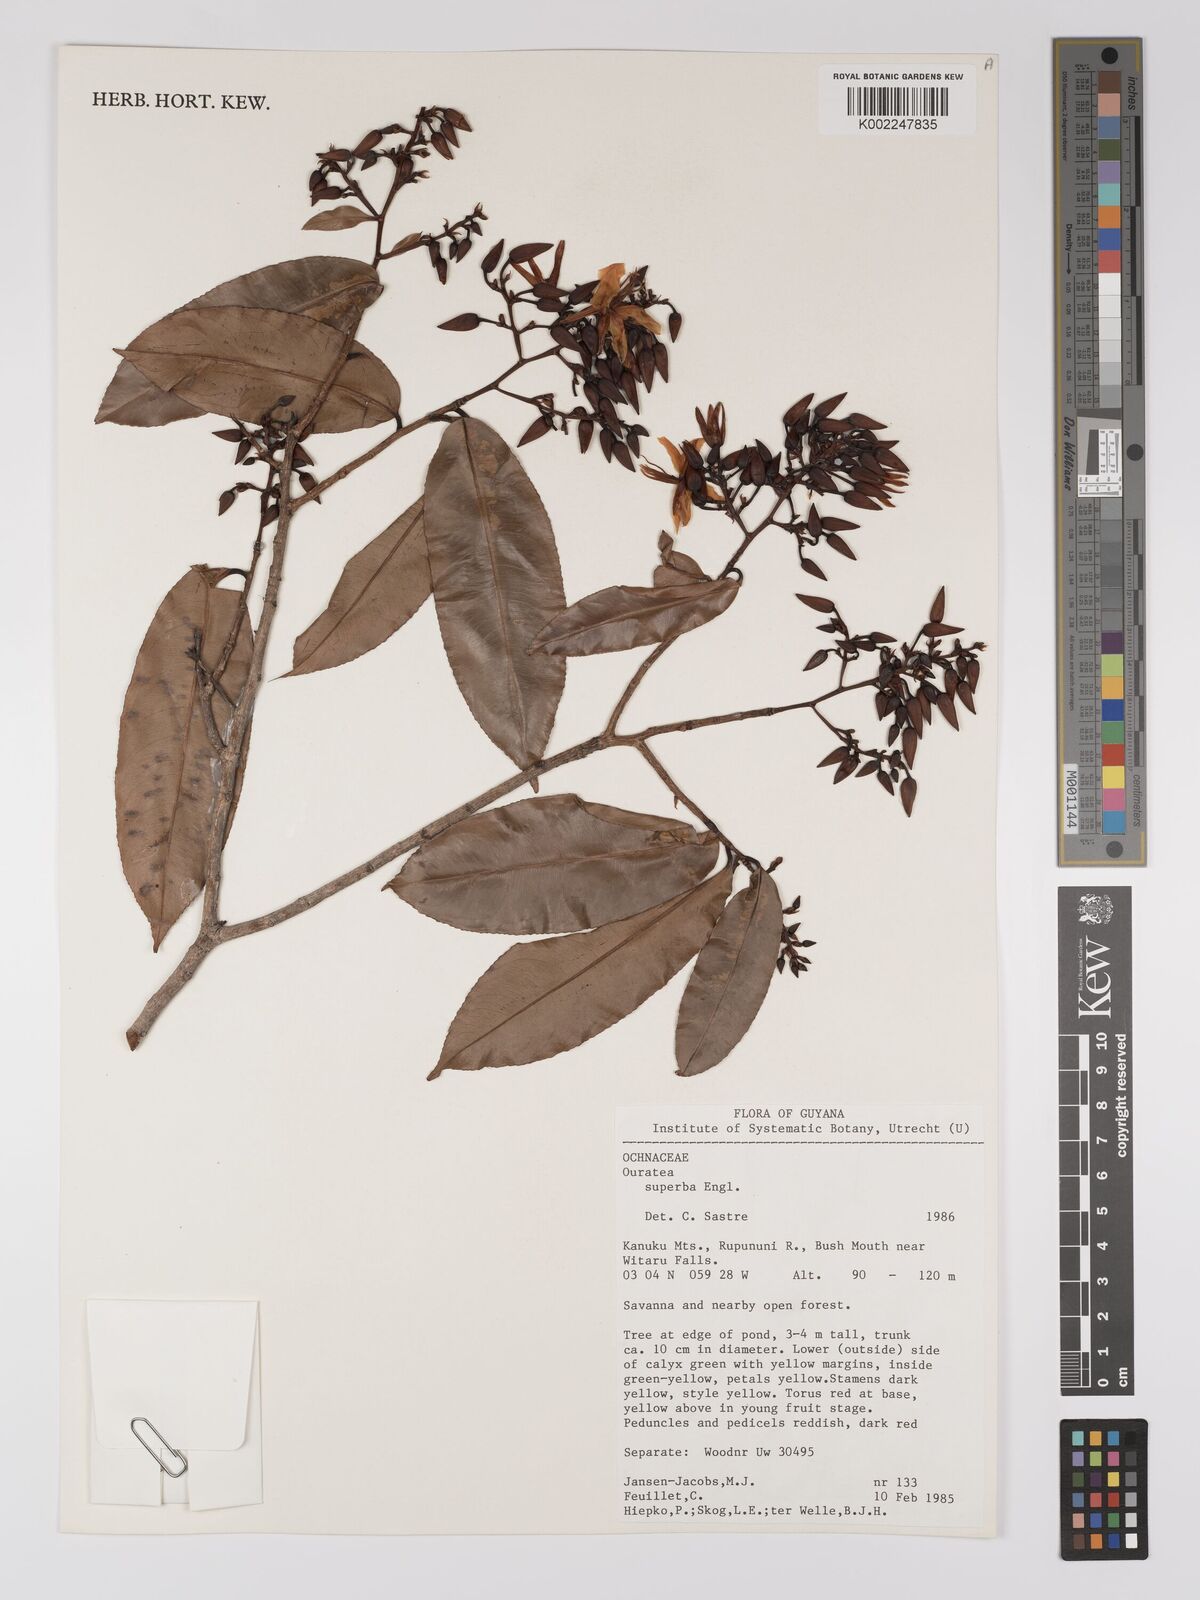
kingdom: Plantae
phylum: Tracheophyta
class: Magnoliopsida
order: Malpighiales
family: Ochnaceae
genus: Ouratea
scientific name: Ouratea superba
